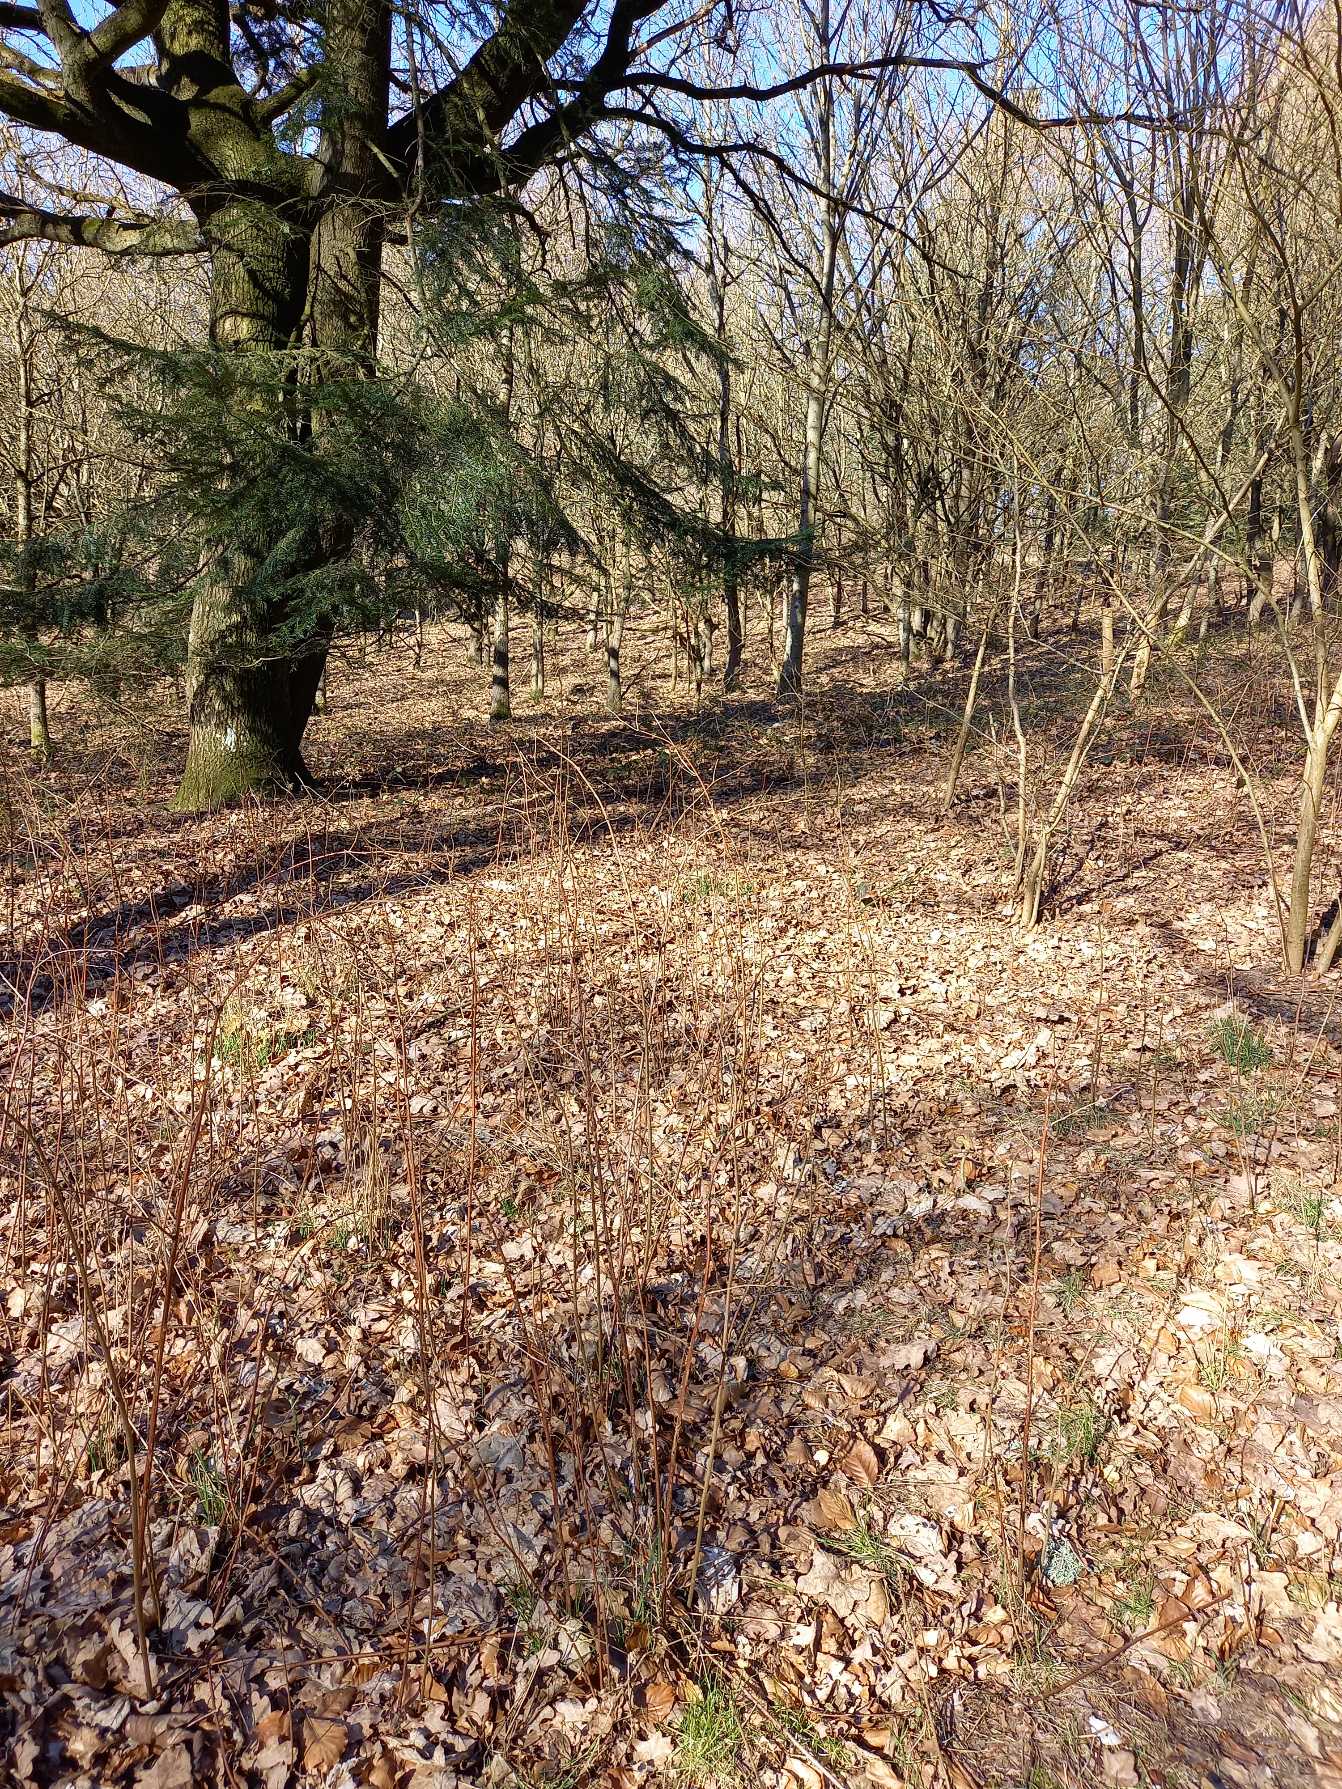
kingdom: Animalia
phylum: Chordata
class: Mammalia
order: Lagomorpha
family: Leporidae
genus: Lepus
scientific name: Lepus europaeus
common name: Hare
